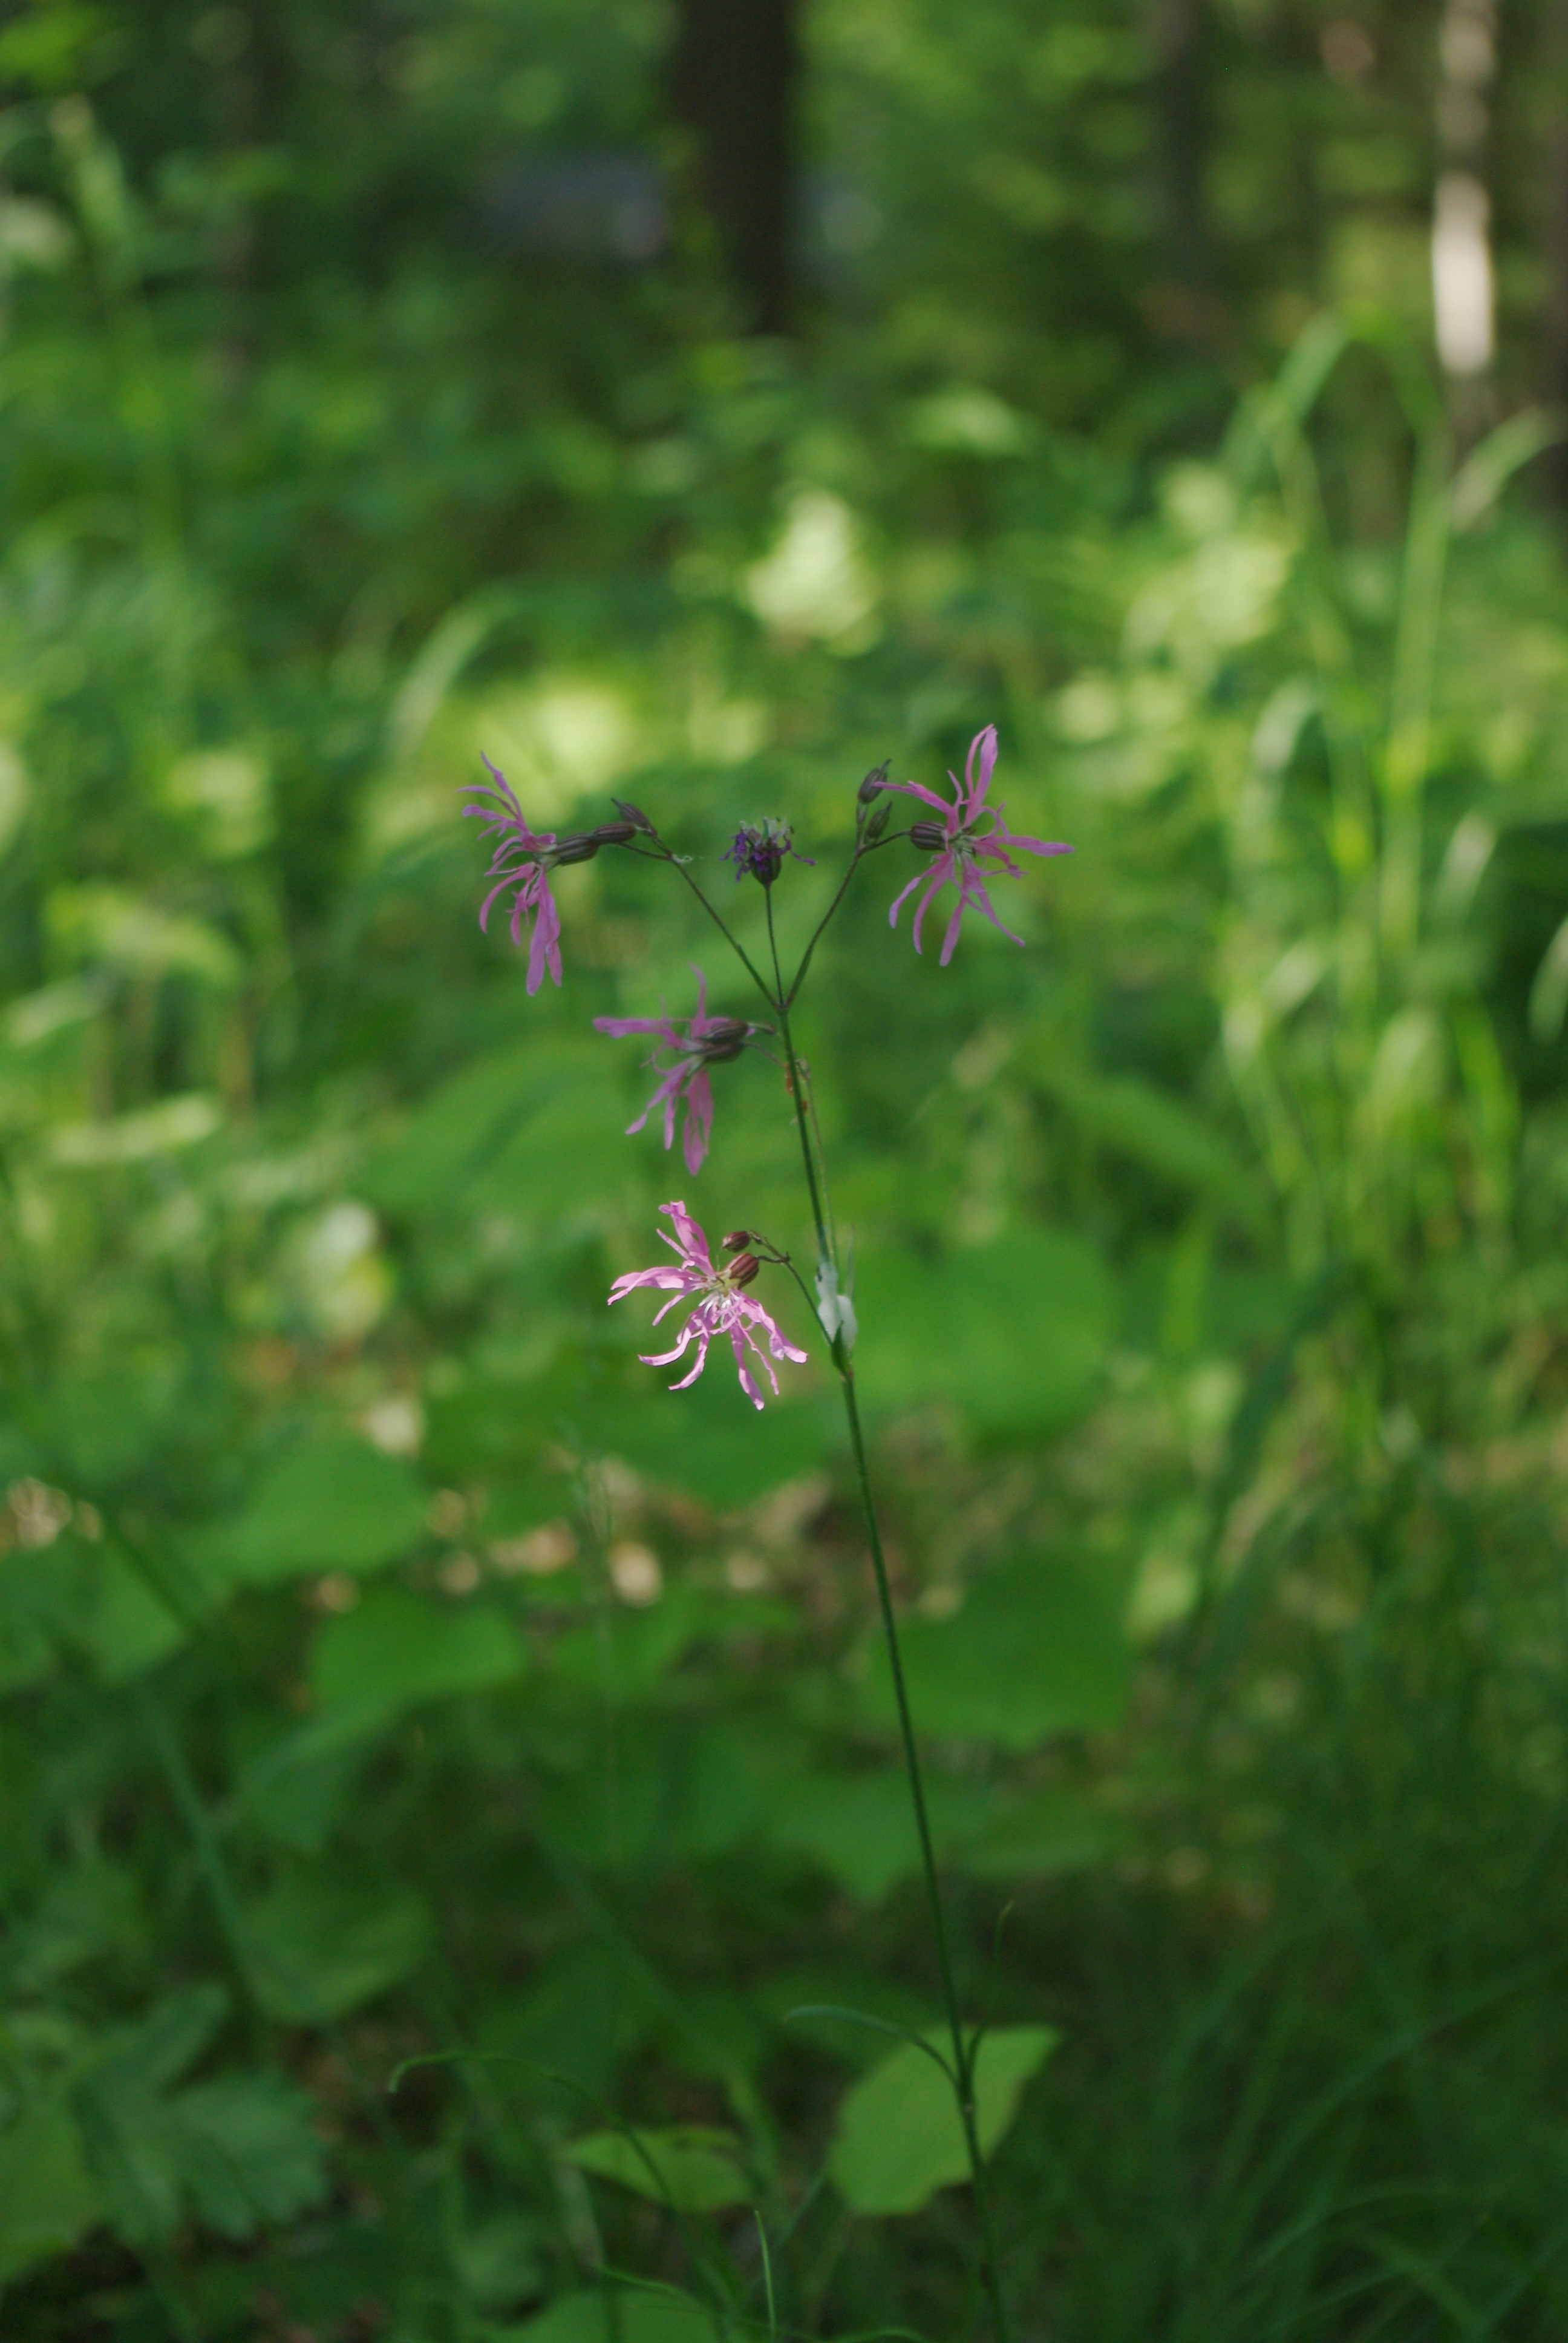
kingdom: Plantae
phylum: Tracheophyta
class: Magnoliopsida
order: Caryophyllales
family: Caryophyllaceae
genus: Silene
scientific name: Silene flos-cuculi
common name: Ragged-robin
